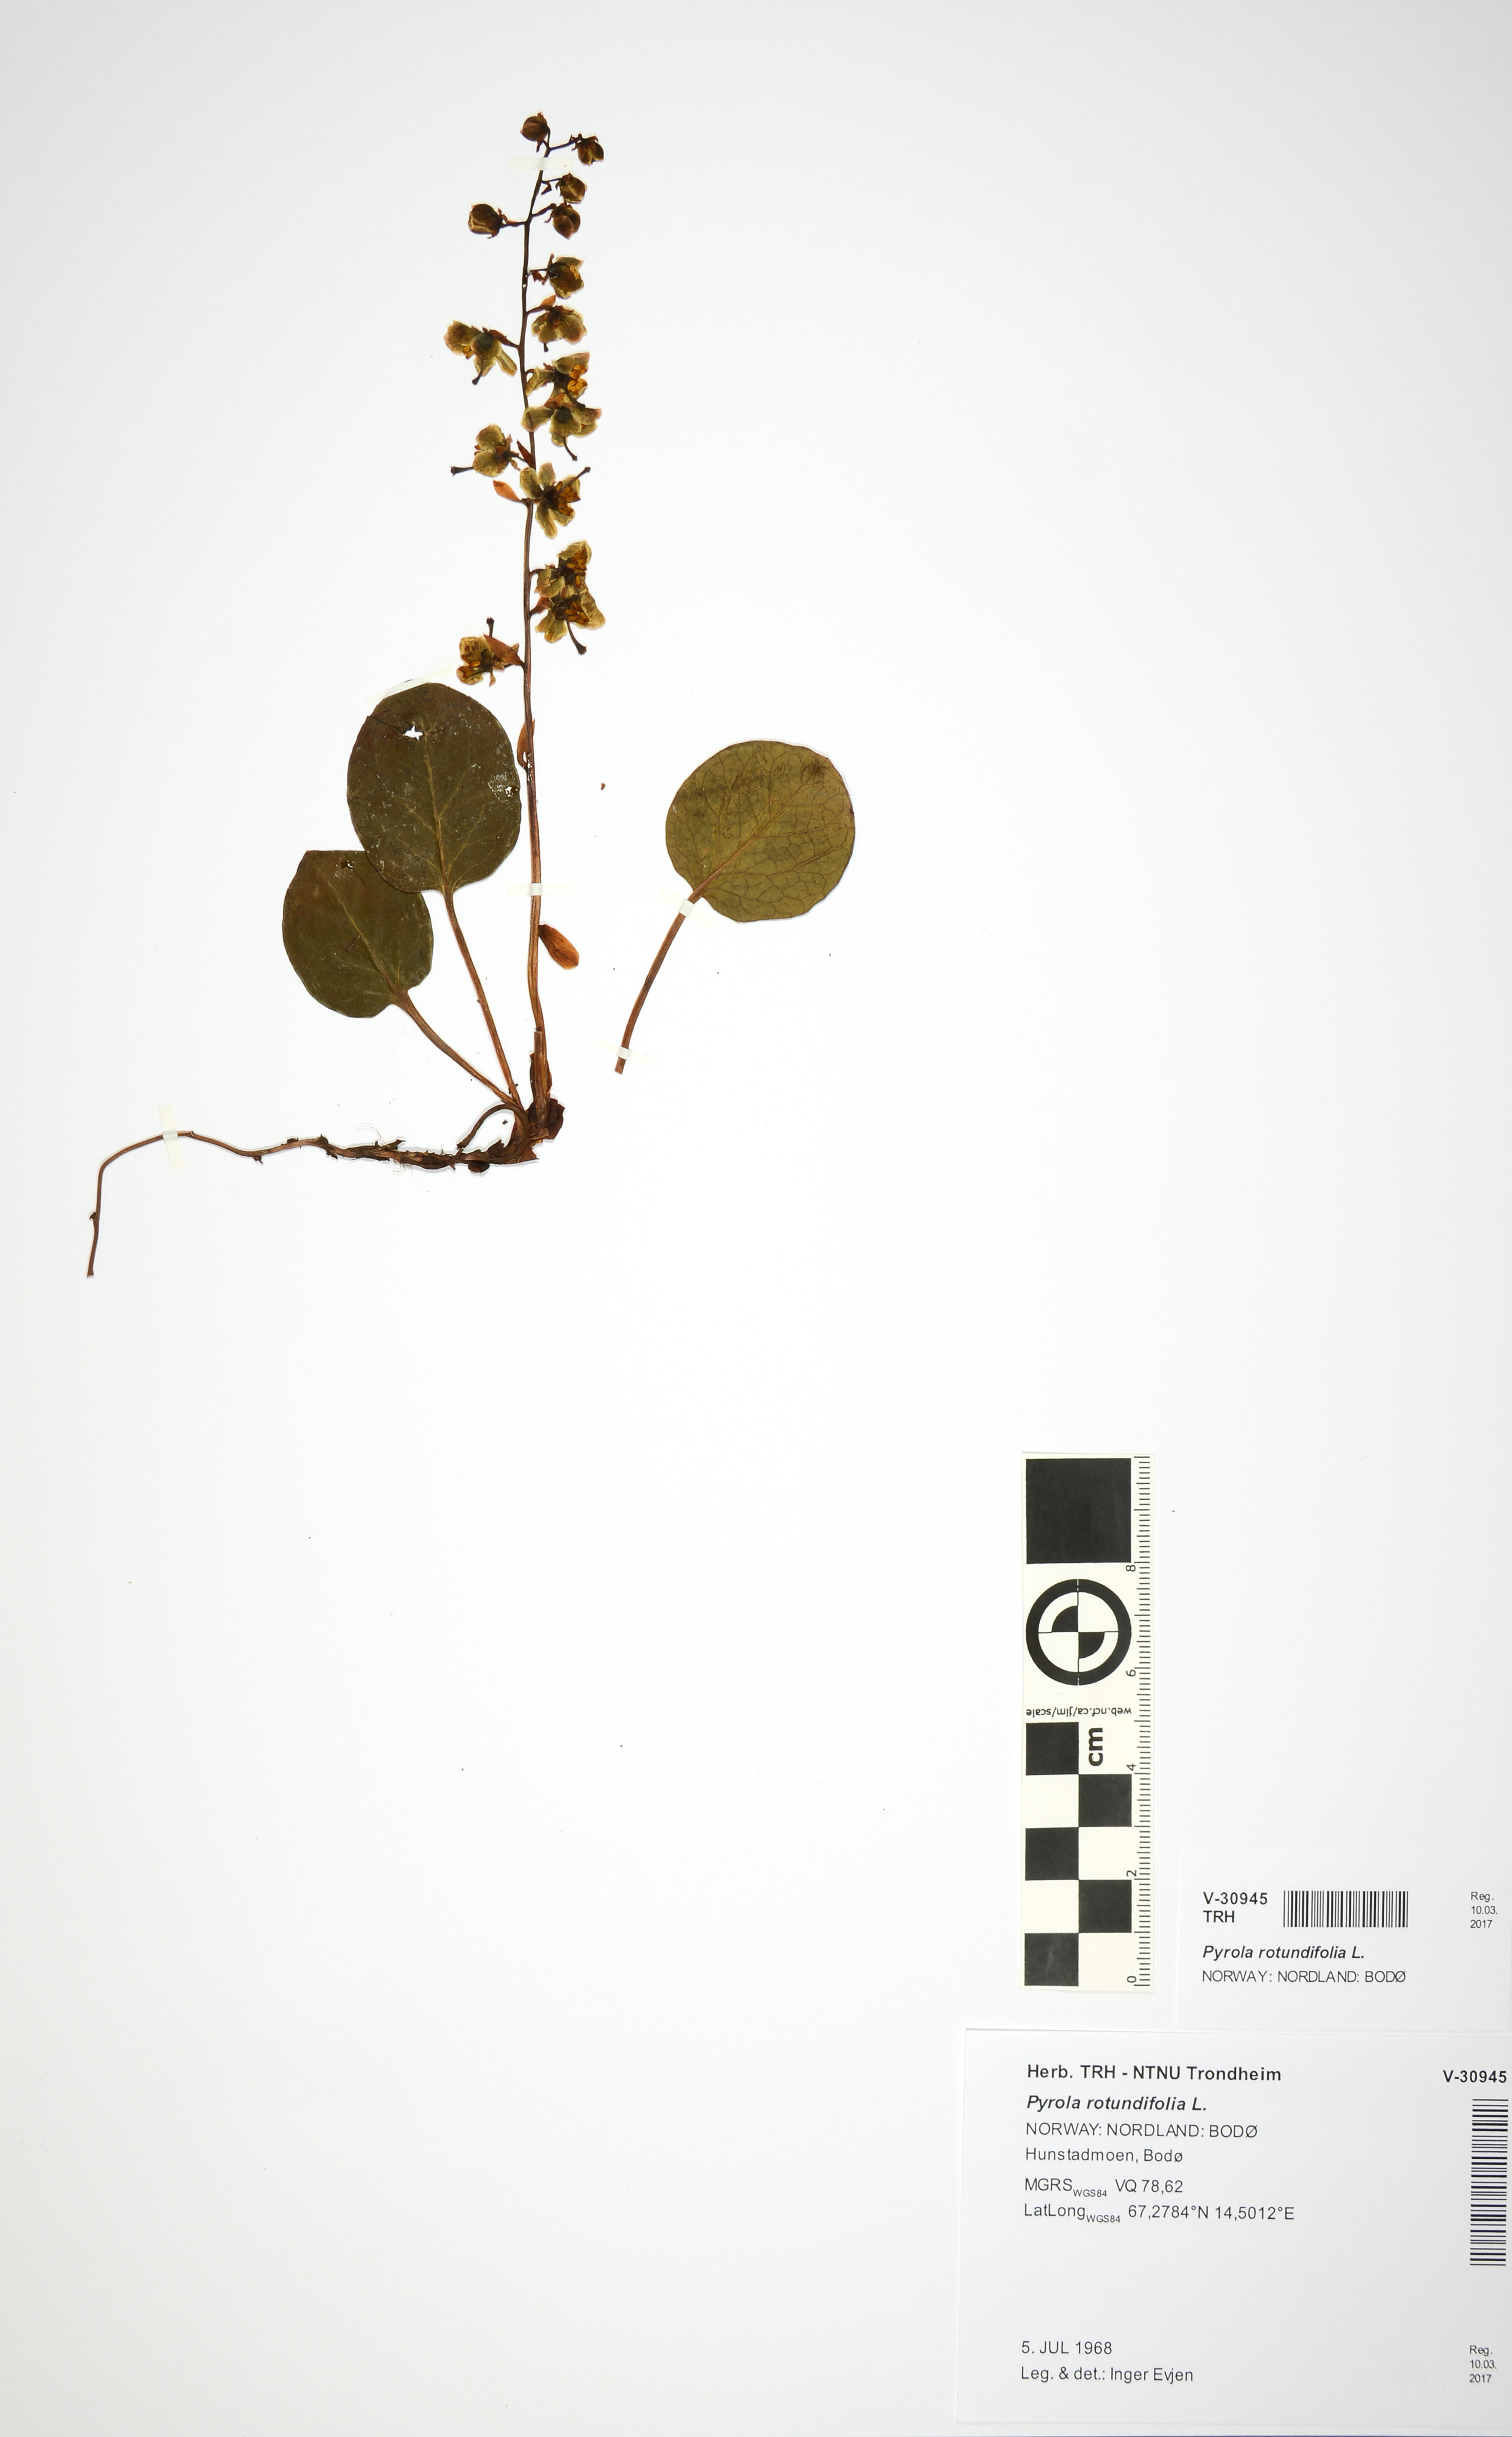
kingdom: Plantae
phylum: Tracheophyta
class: Magnoliopsida
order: Ericales
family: Ericaceae
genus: Pyrola
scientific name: Pyrola rotundifolia
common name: Round-leaved wintergreen
